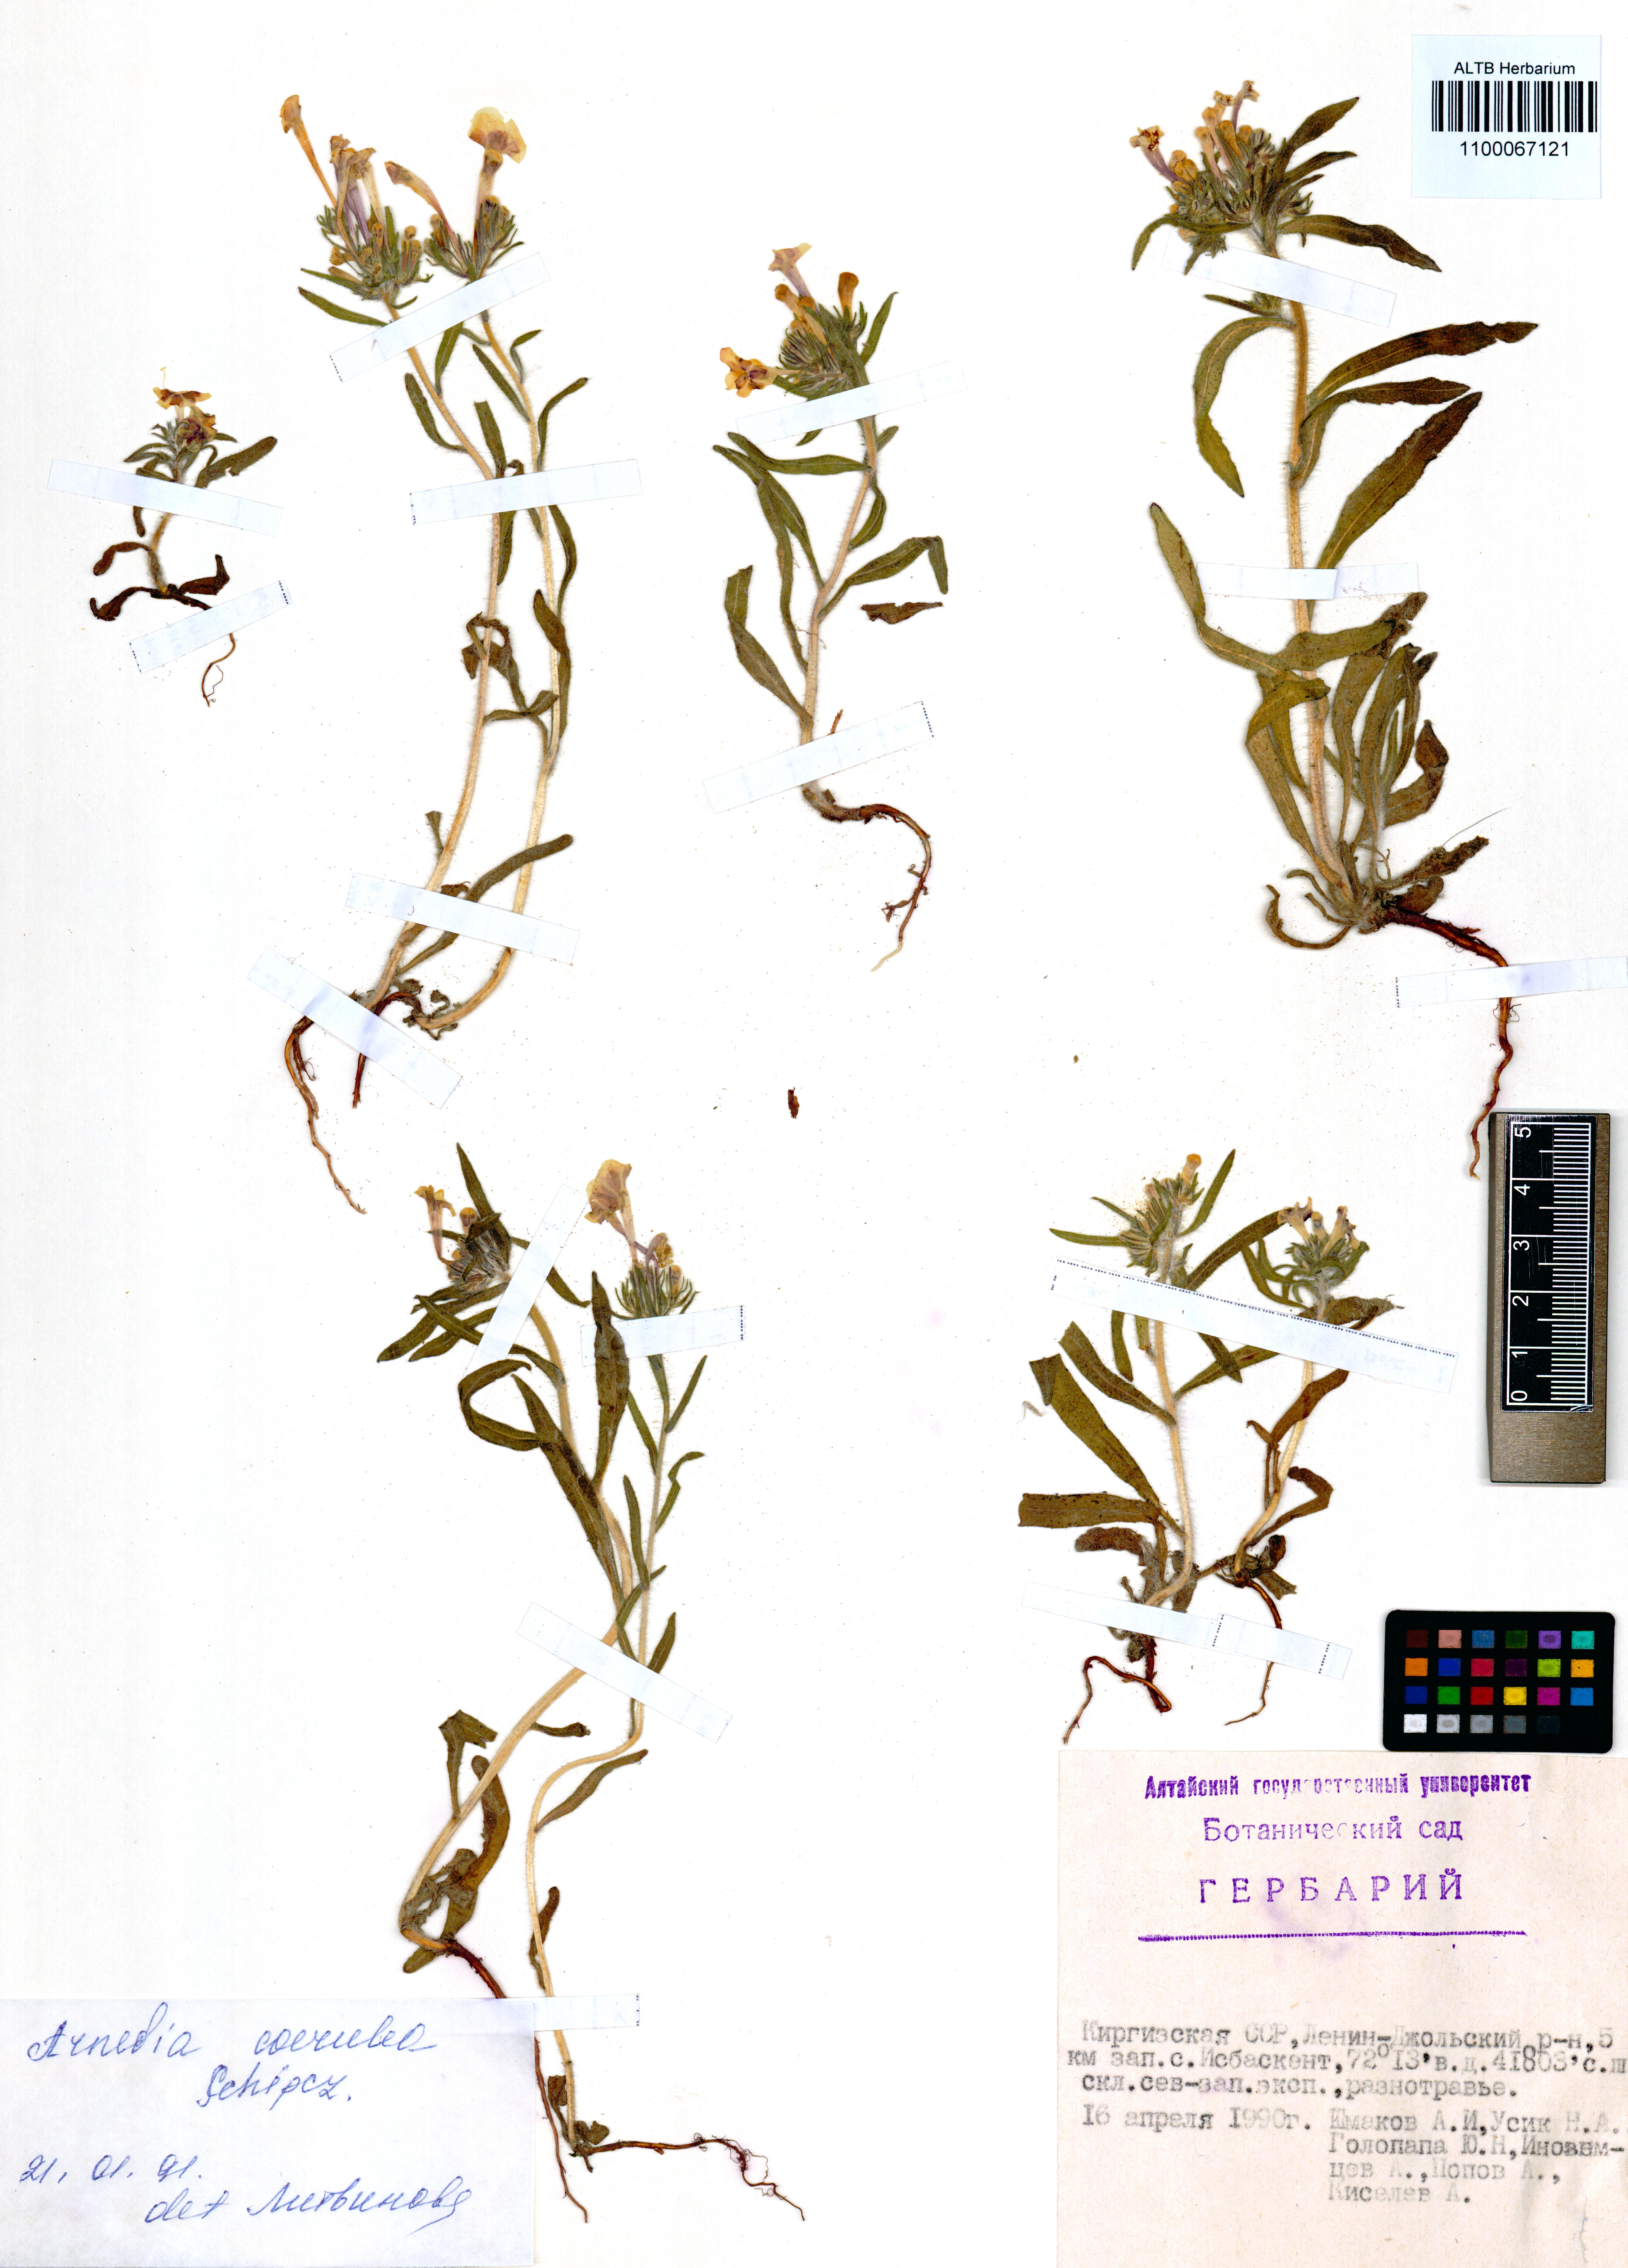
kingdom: Plantae
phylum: Tracheophyta
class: Magnoliopsida
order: Boraginales
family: Boraginaceae
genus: Arnebia
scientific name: Arnebia coerulea
